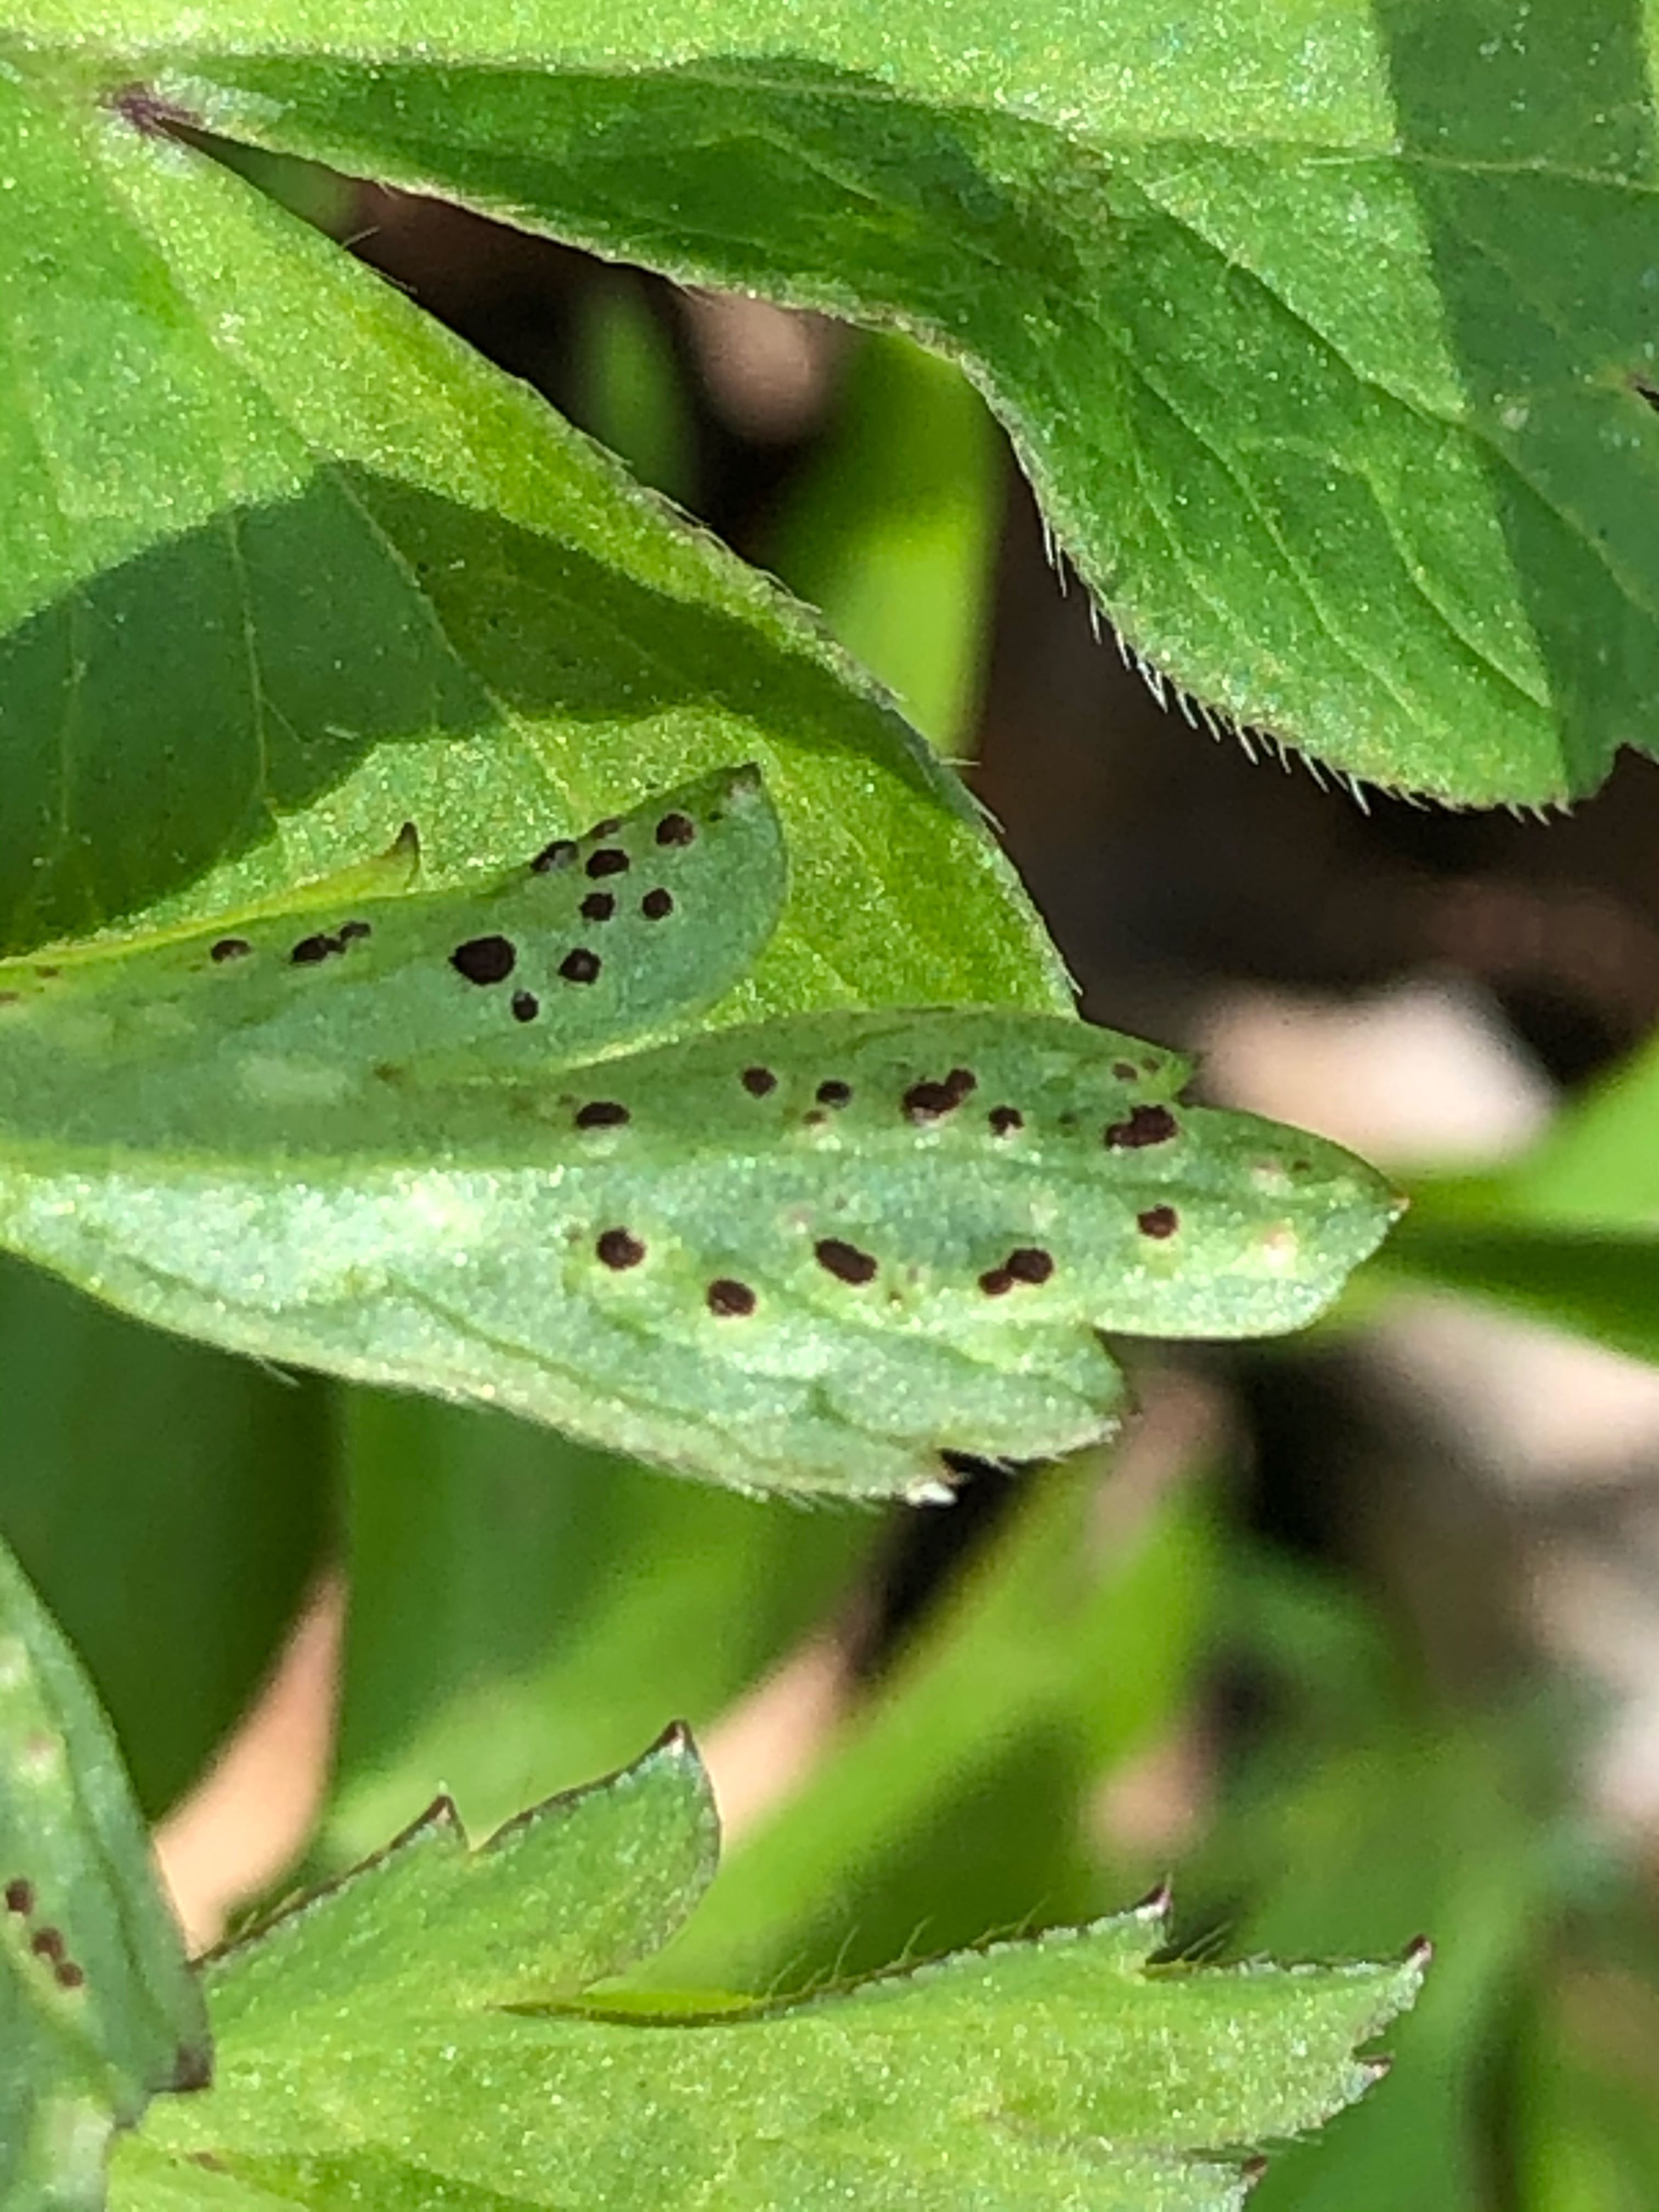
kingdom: Fungi
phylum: Basidiomycota
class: Pucciniomycetes
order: Pucciniales
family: Tranzscheliaceae
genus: Tranzschelia
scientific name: Tranzschelia anemones
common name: anemone-knæksporerust
